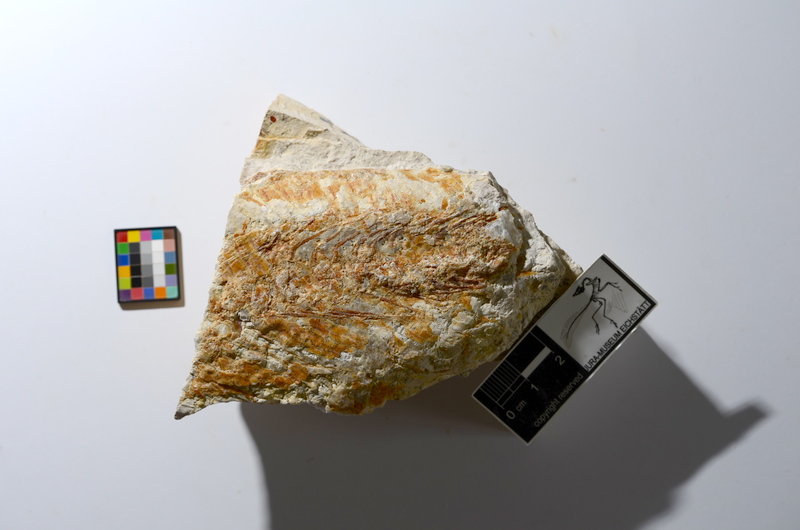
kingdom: Animalia
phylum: Chordata
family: Ankylophoridae
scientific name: Ankylophoridae
